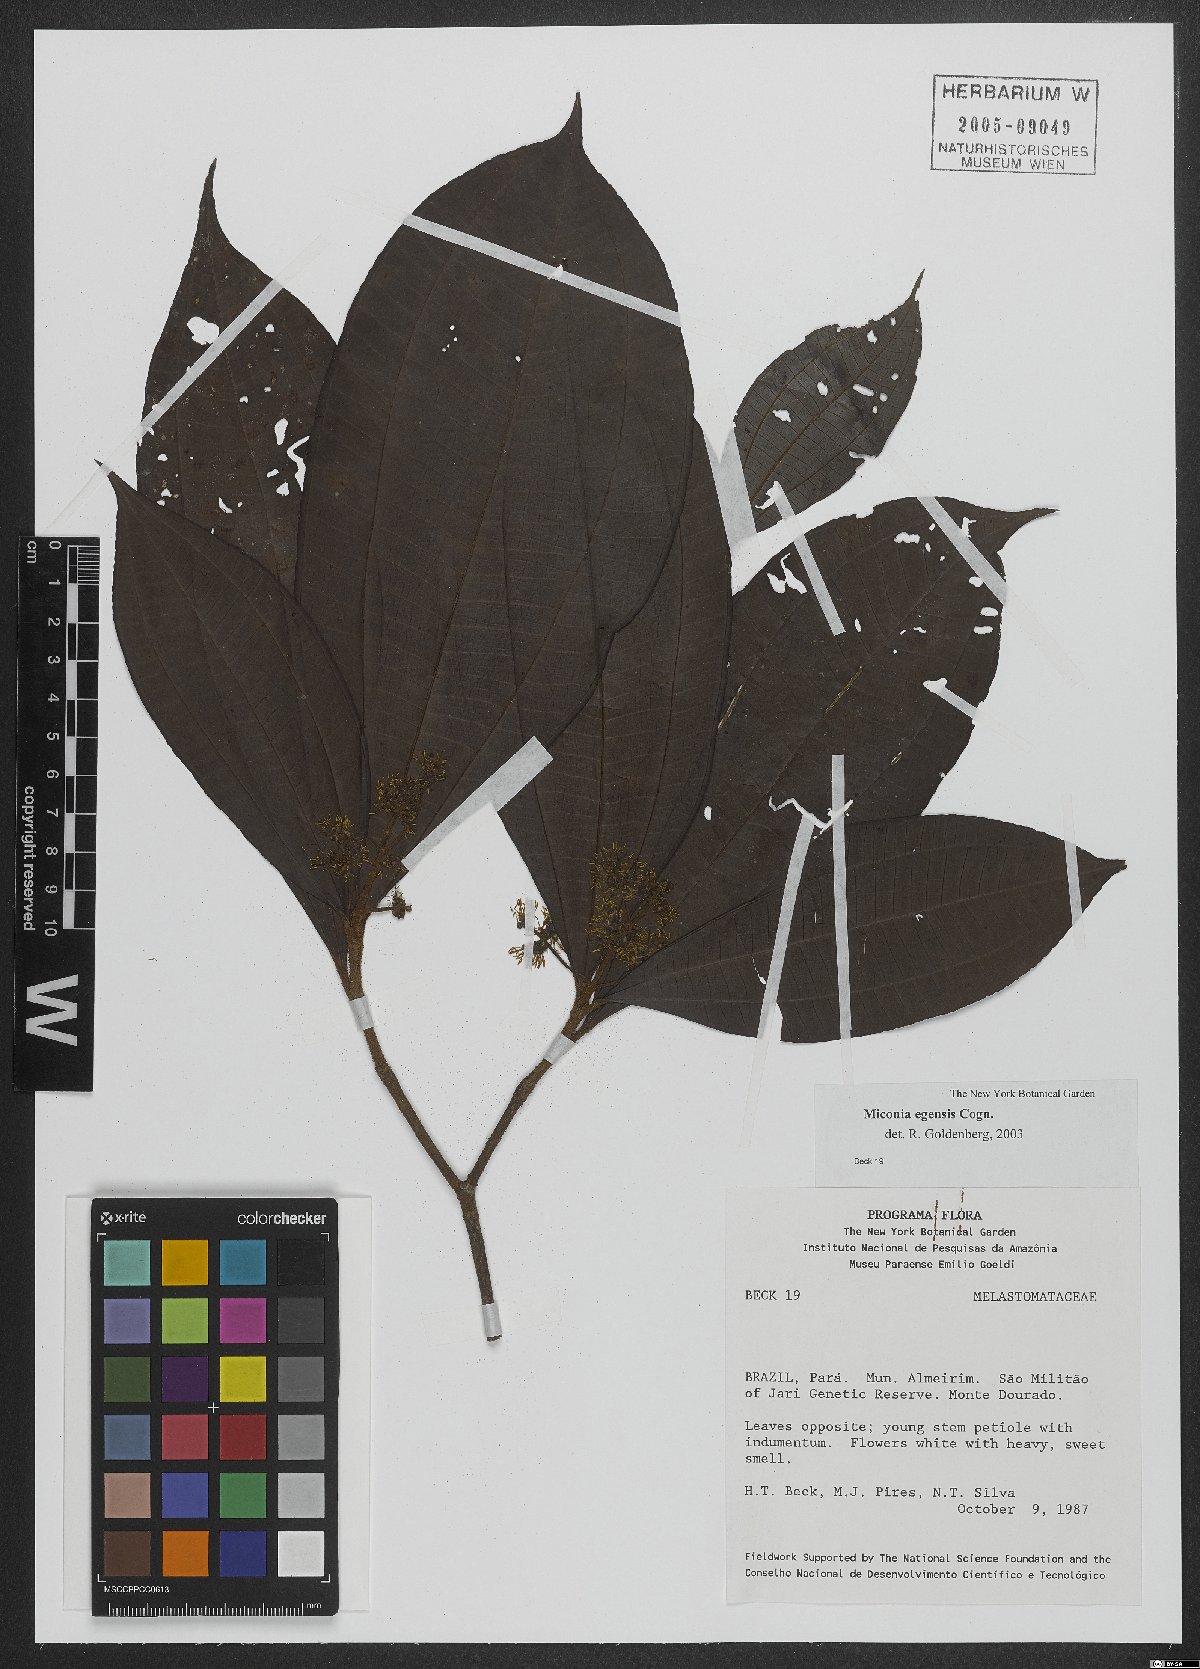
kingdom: Plantae
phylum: Tracheophyta
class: Magnoliopsida
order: Myrtales
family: Melastomataceae
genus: Miconia
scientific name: Miconia egensis
